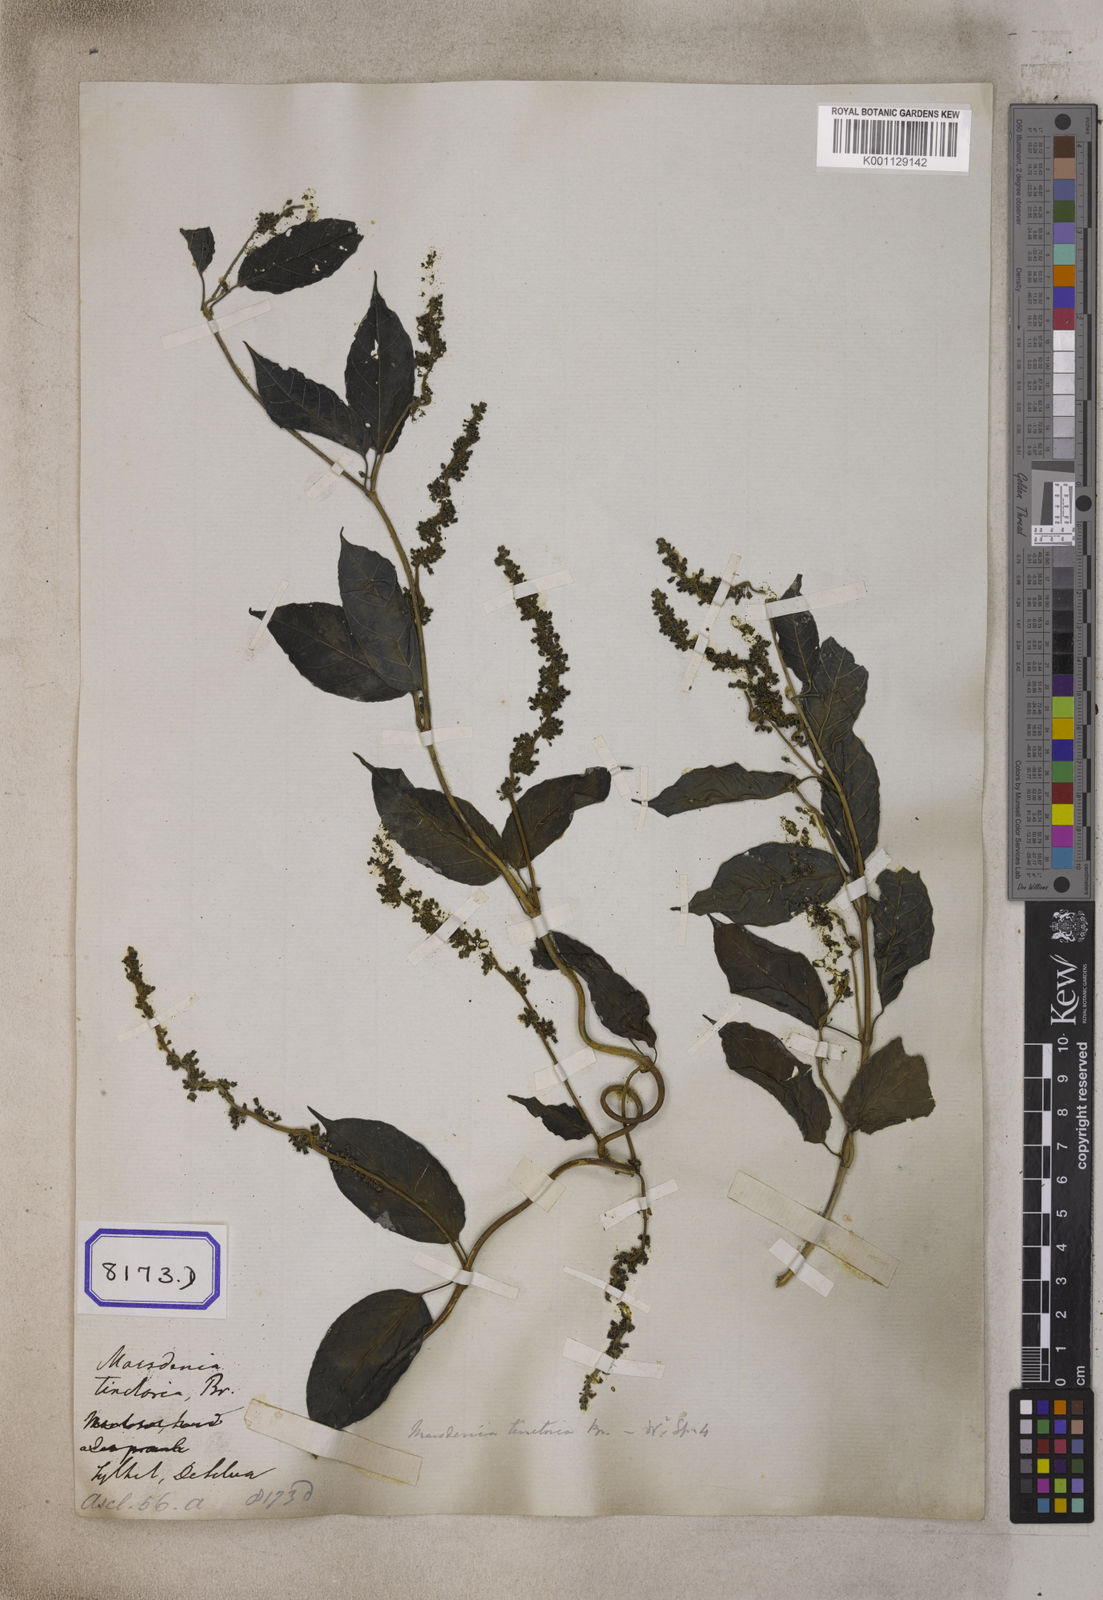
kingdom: Plantae
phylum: Tracheophyta
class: Magnoliopsida
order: Gentianales
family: Apocynaceae
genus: Marsdenia
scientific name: Marsdenia tinctoria
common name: Climbing-indigo
